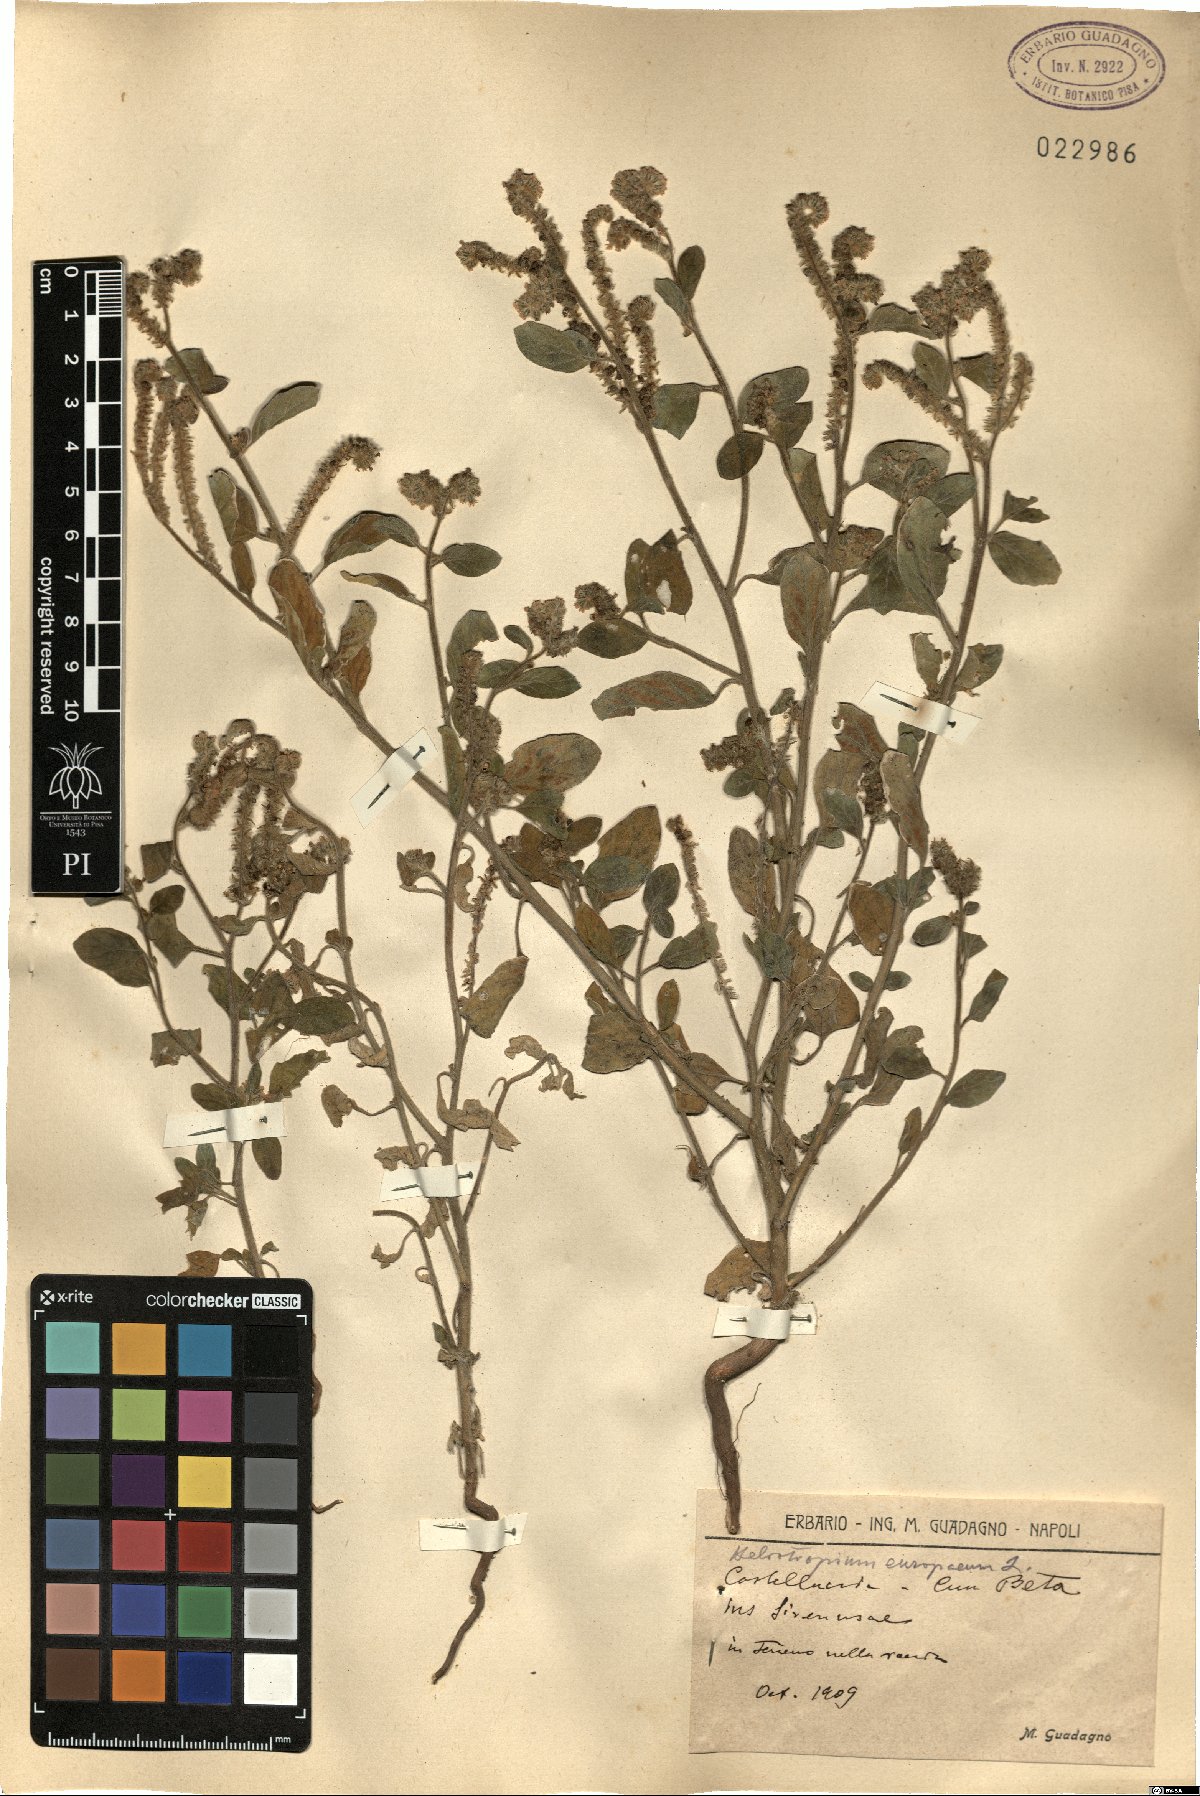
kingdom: Plantae
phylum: Tracheophyta
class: Magnoliopsida
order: Boraginales
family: Heliotropiaceae
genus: Heliotropium
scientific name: Heliotropium europaeum
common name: European heliotrope
